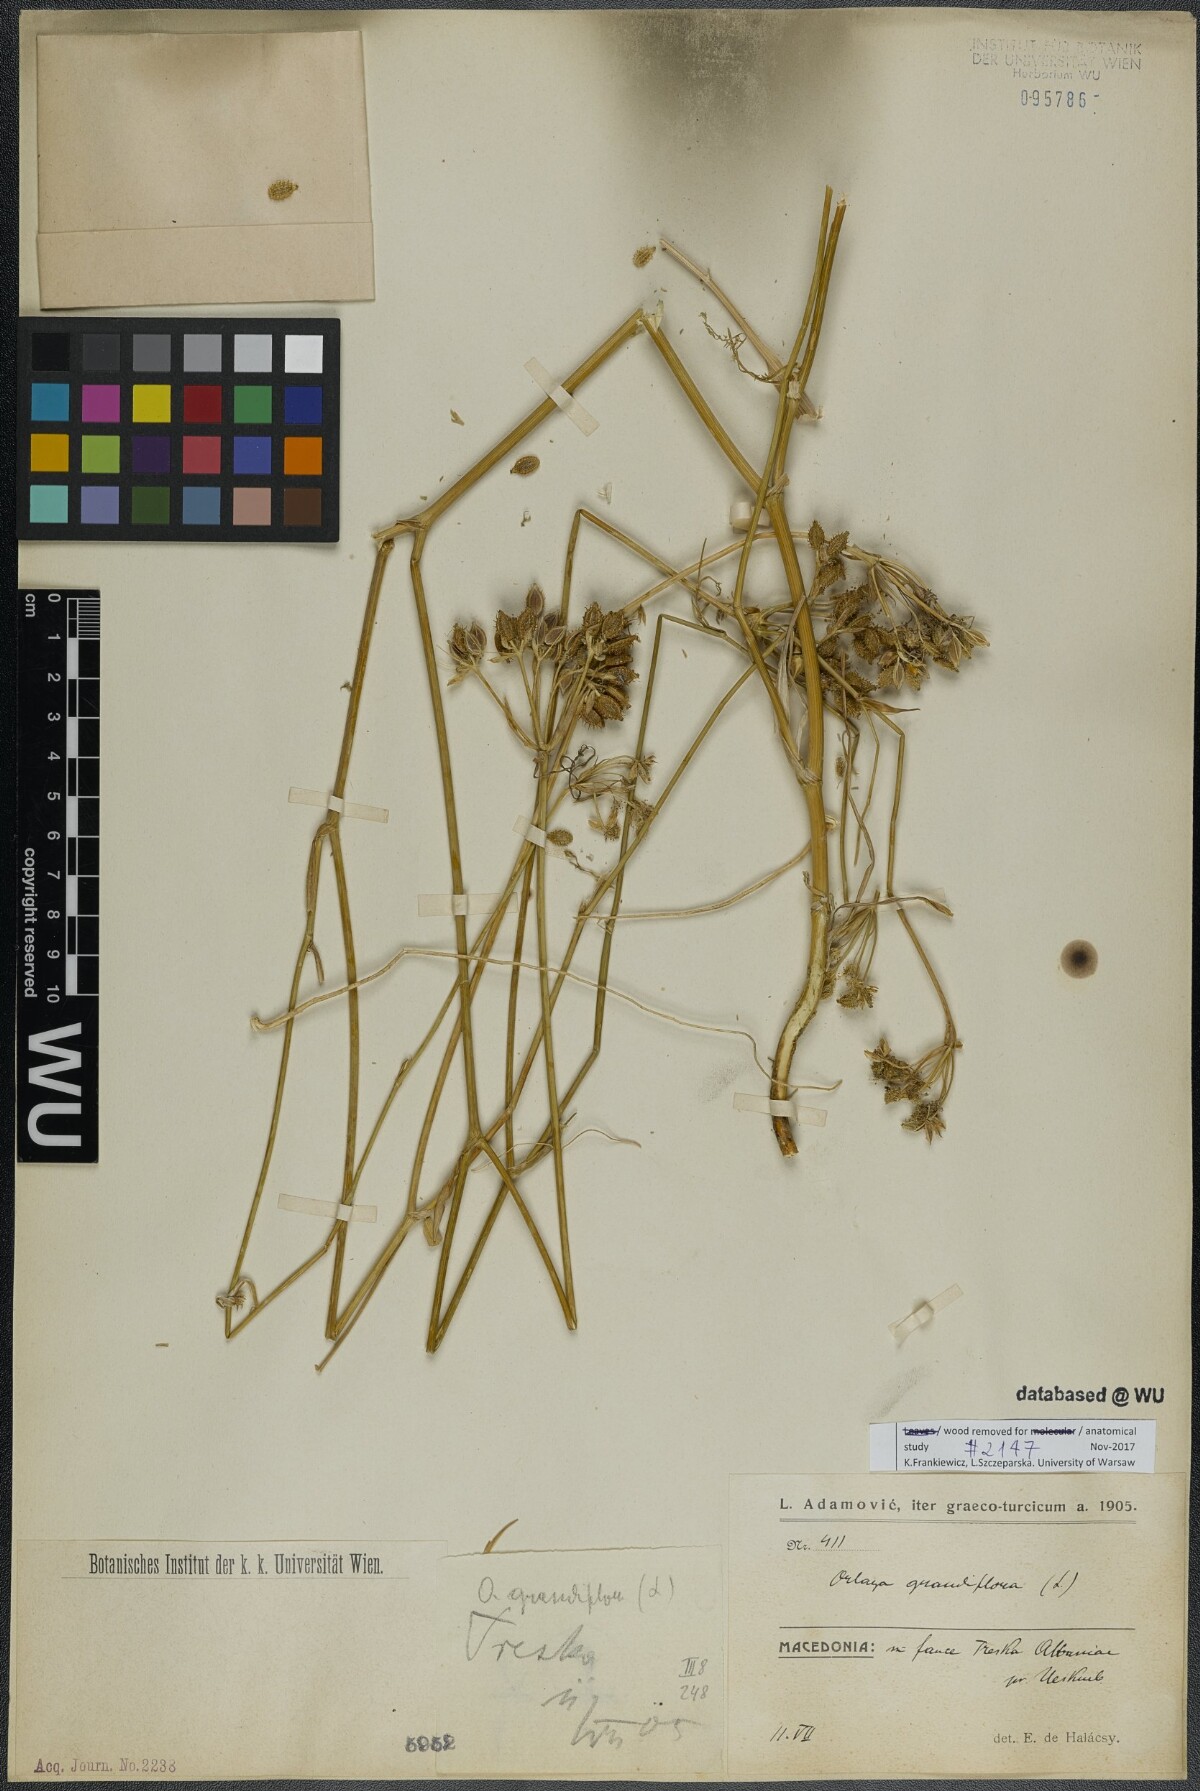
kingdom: Plantae
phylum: Tracheophyta
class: Magnoliopsida
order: Apiales
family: Apiaceae
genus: Orlaya
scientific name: Orlaya grandiflora
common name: White lace flower
